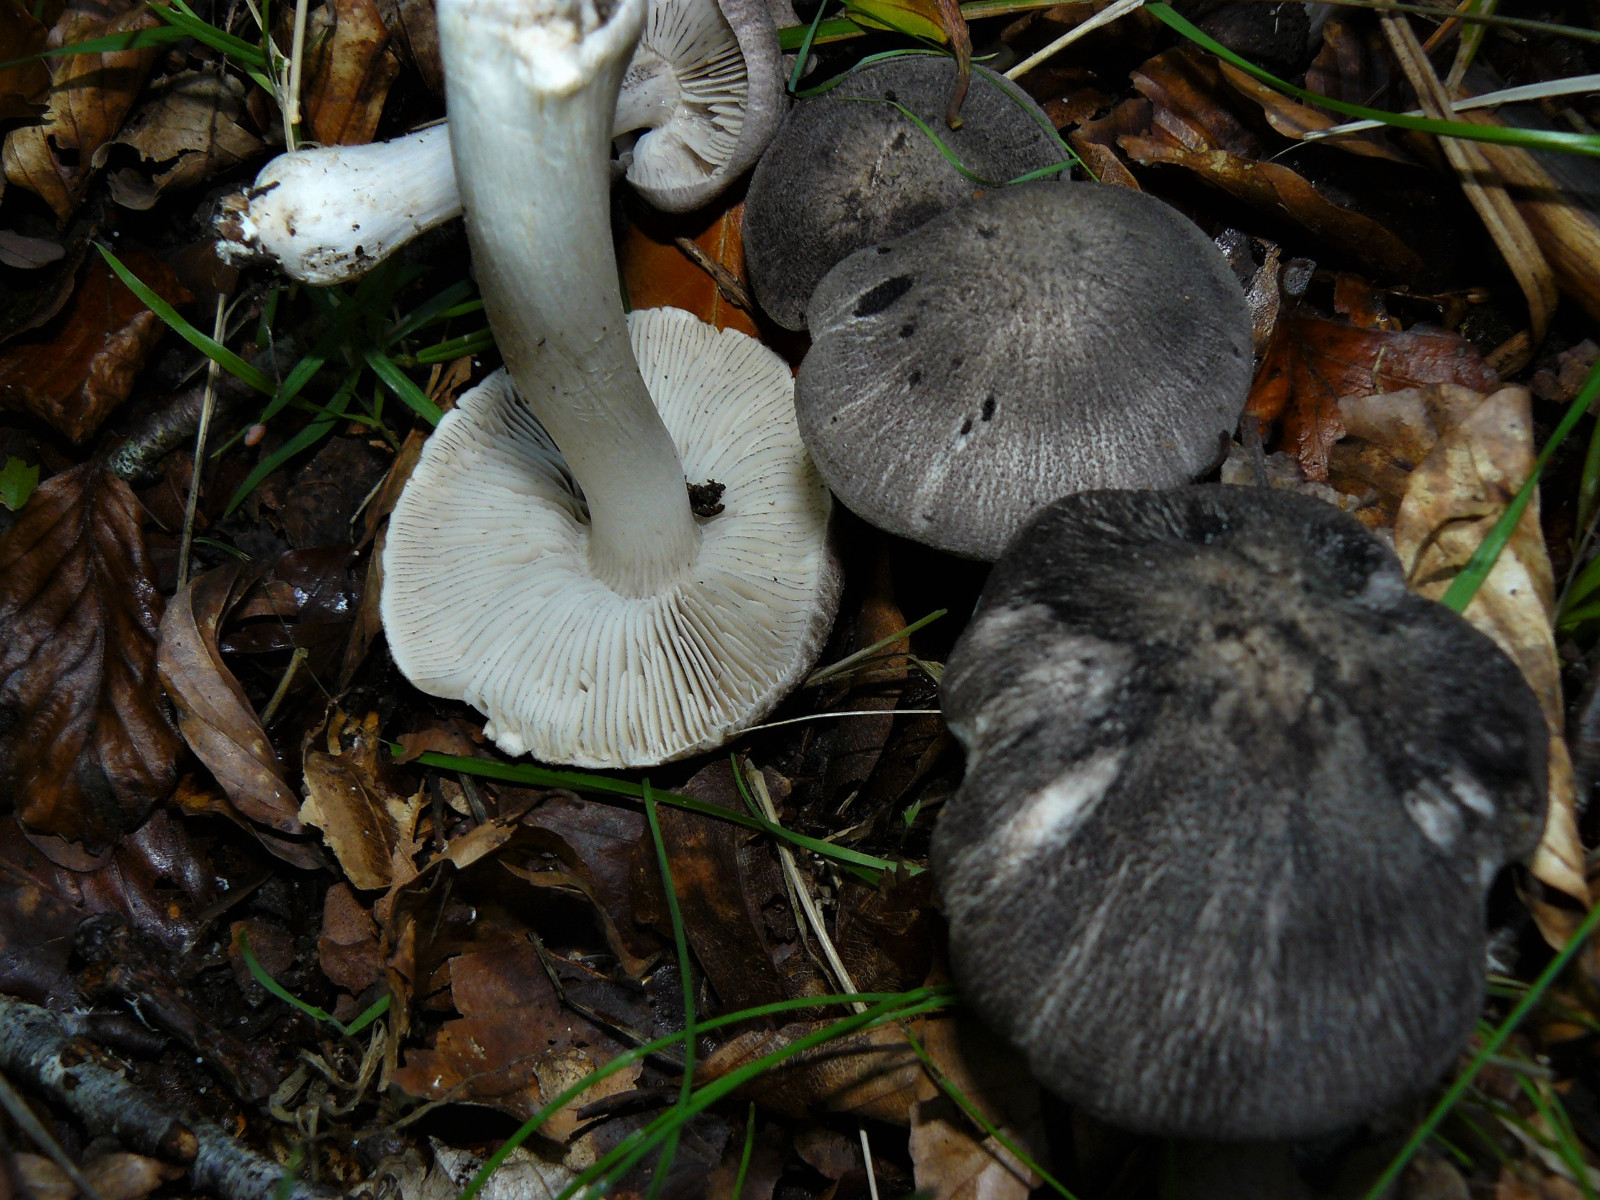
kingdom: Fungi
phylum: Basidiomycota
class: Agaricomycetes
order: Agaricales
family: Tricholomataceae
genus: Tricholoma
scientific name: Tricholoma sciodes
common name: stribet ridderhat
